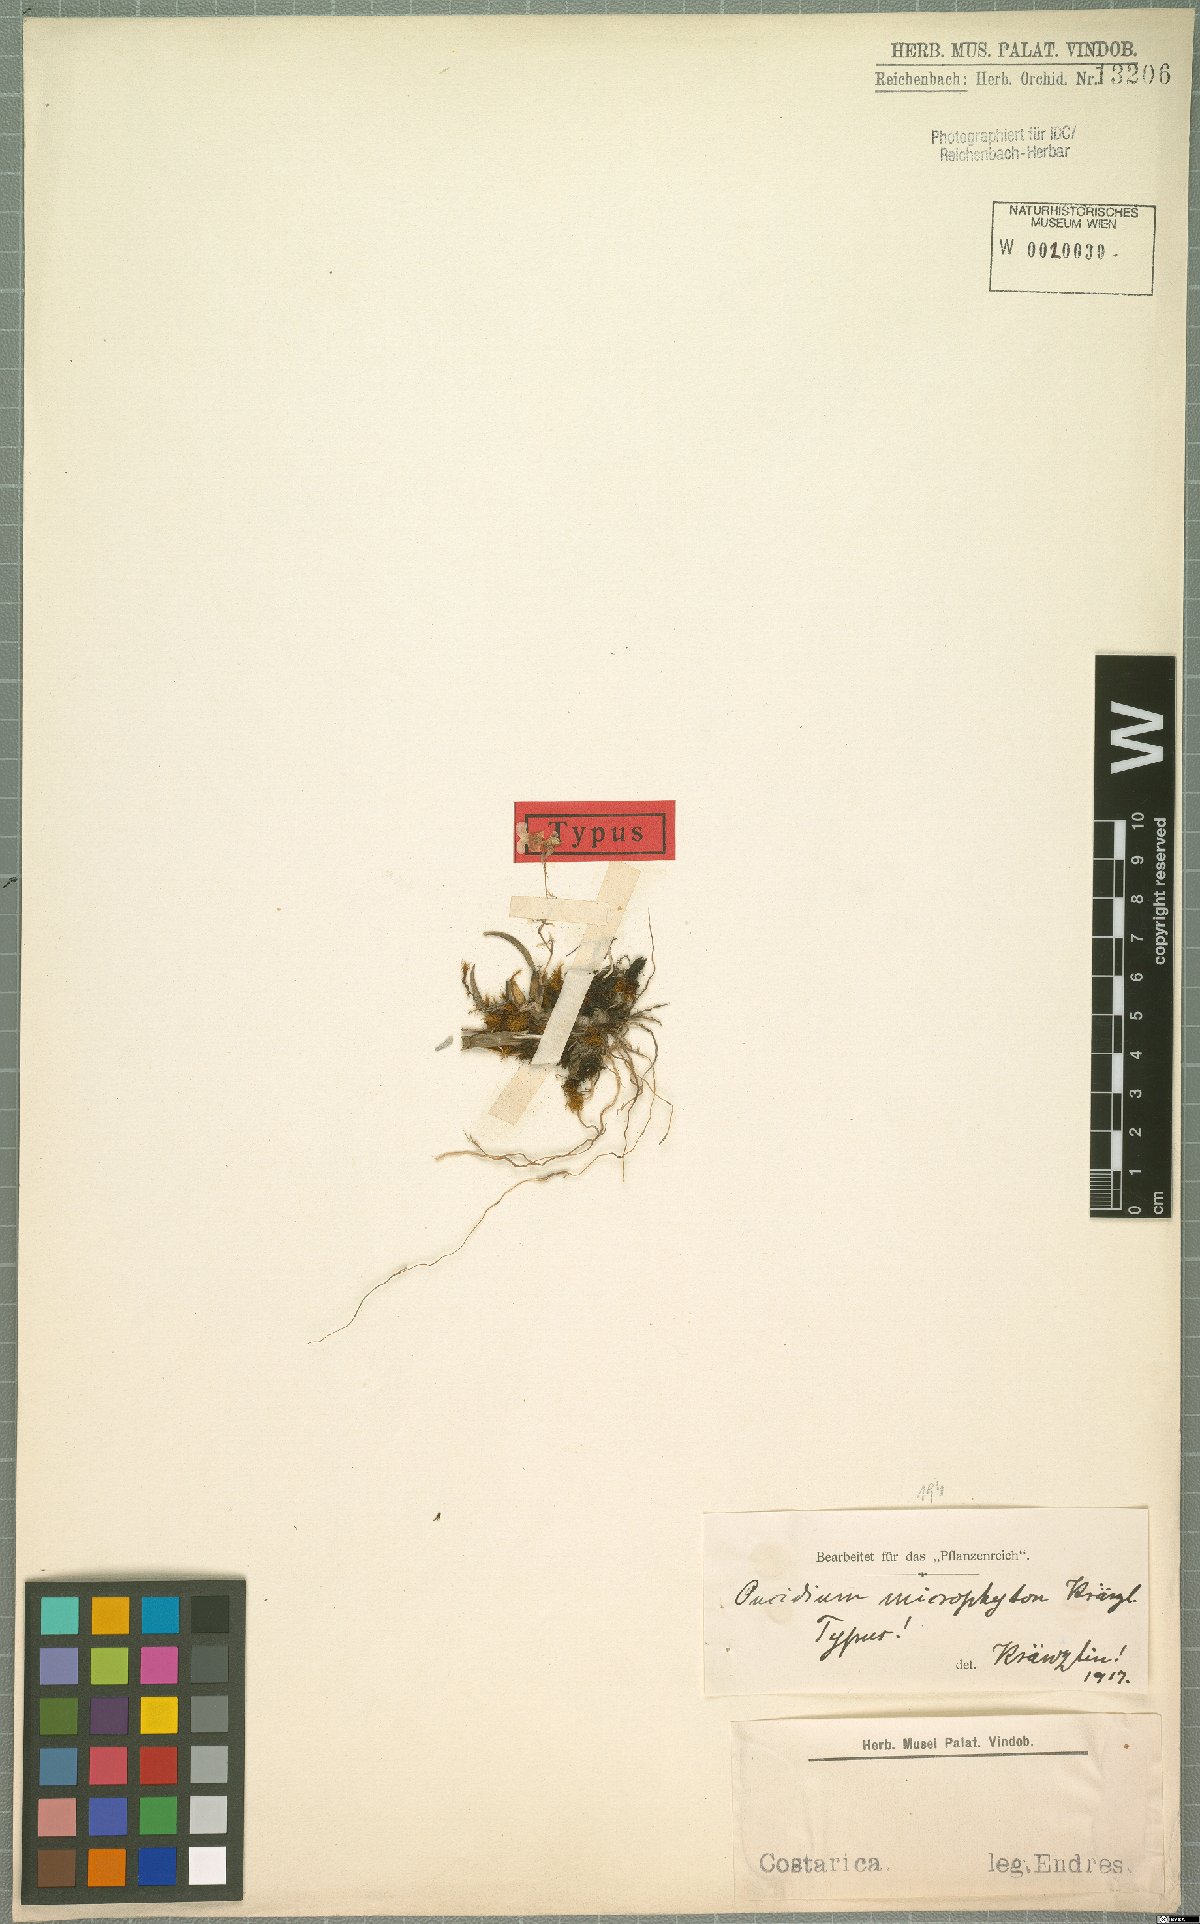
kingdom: Plantae
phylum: Tracheophyta
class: Liliopsida
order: Asparagales
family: Orchidaceae
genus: Oncidium
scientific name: Oncidium bryolophotum
